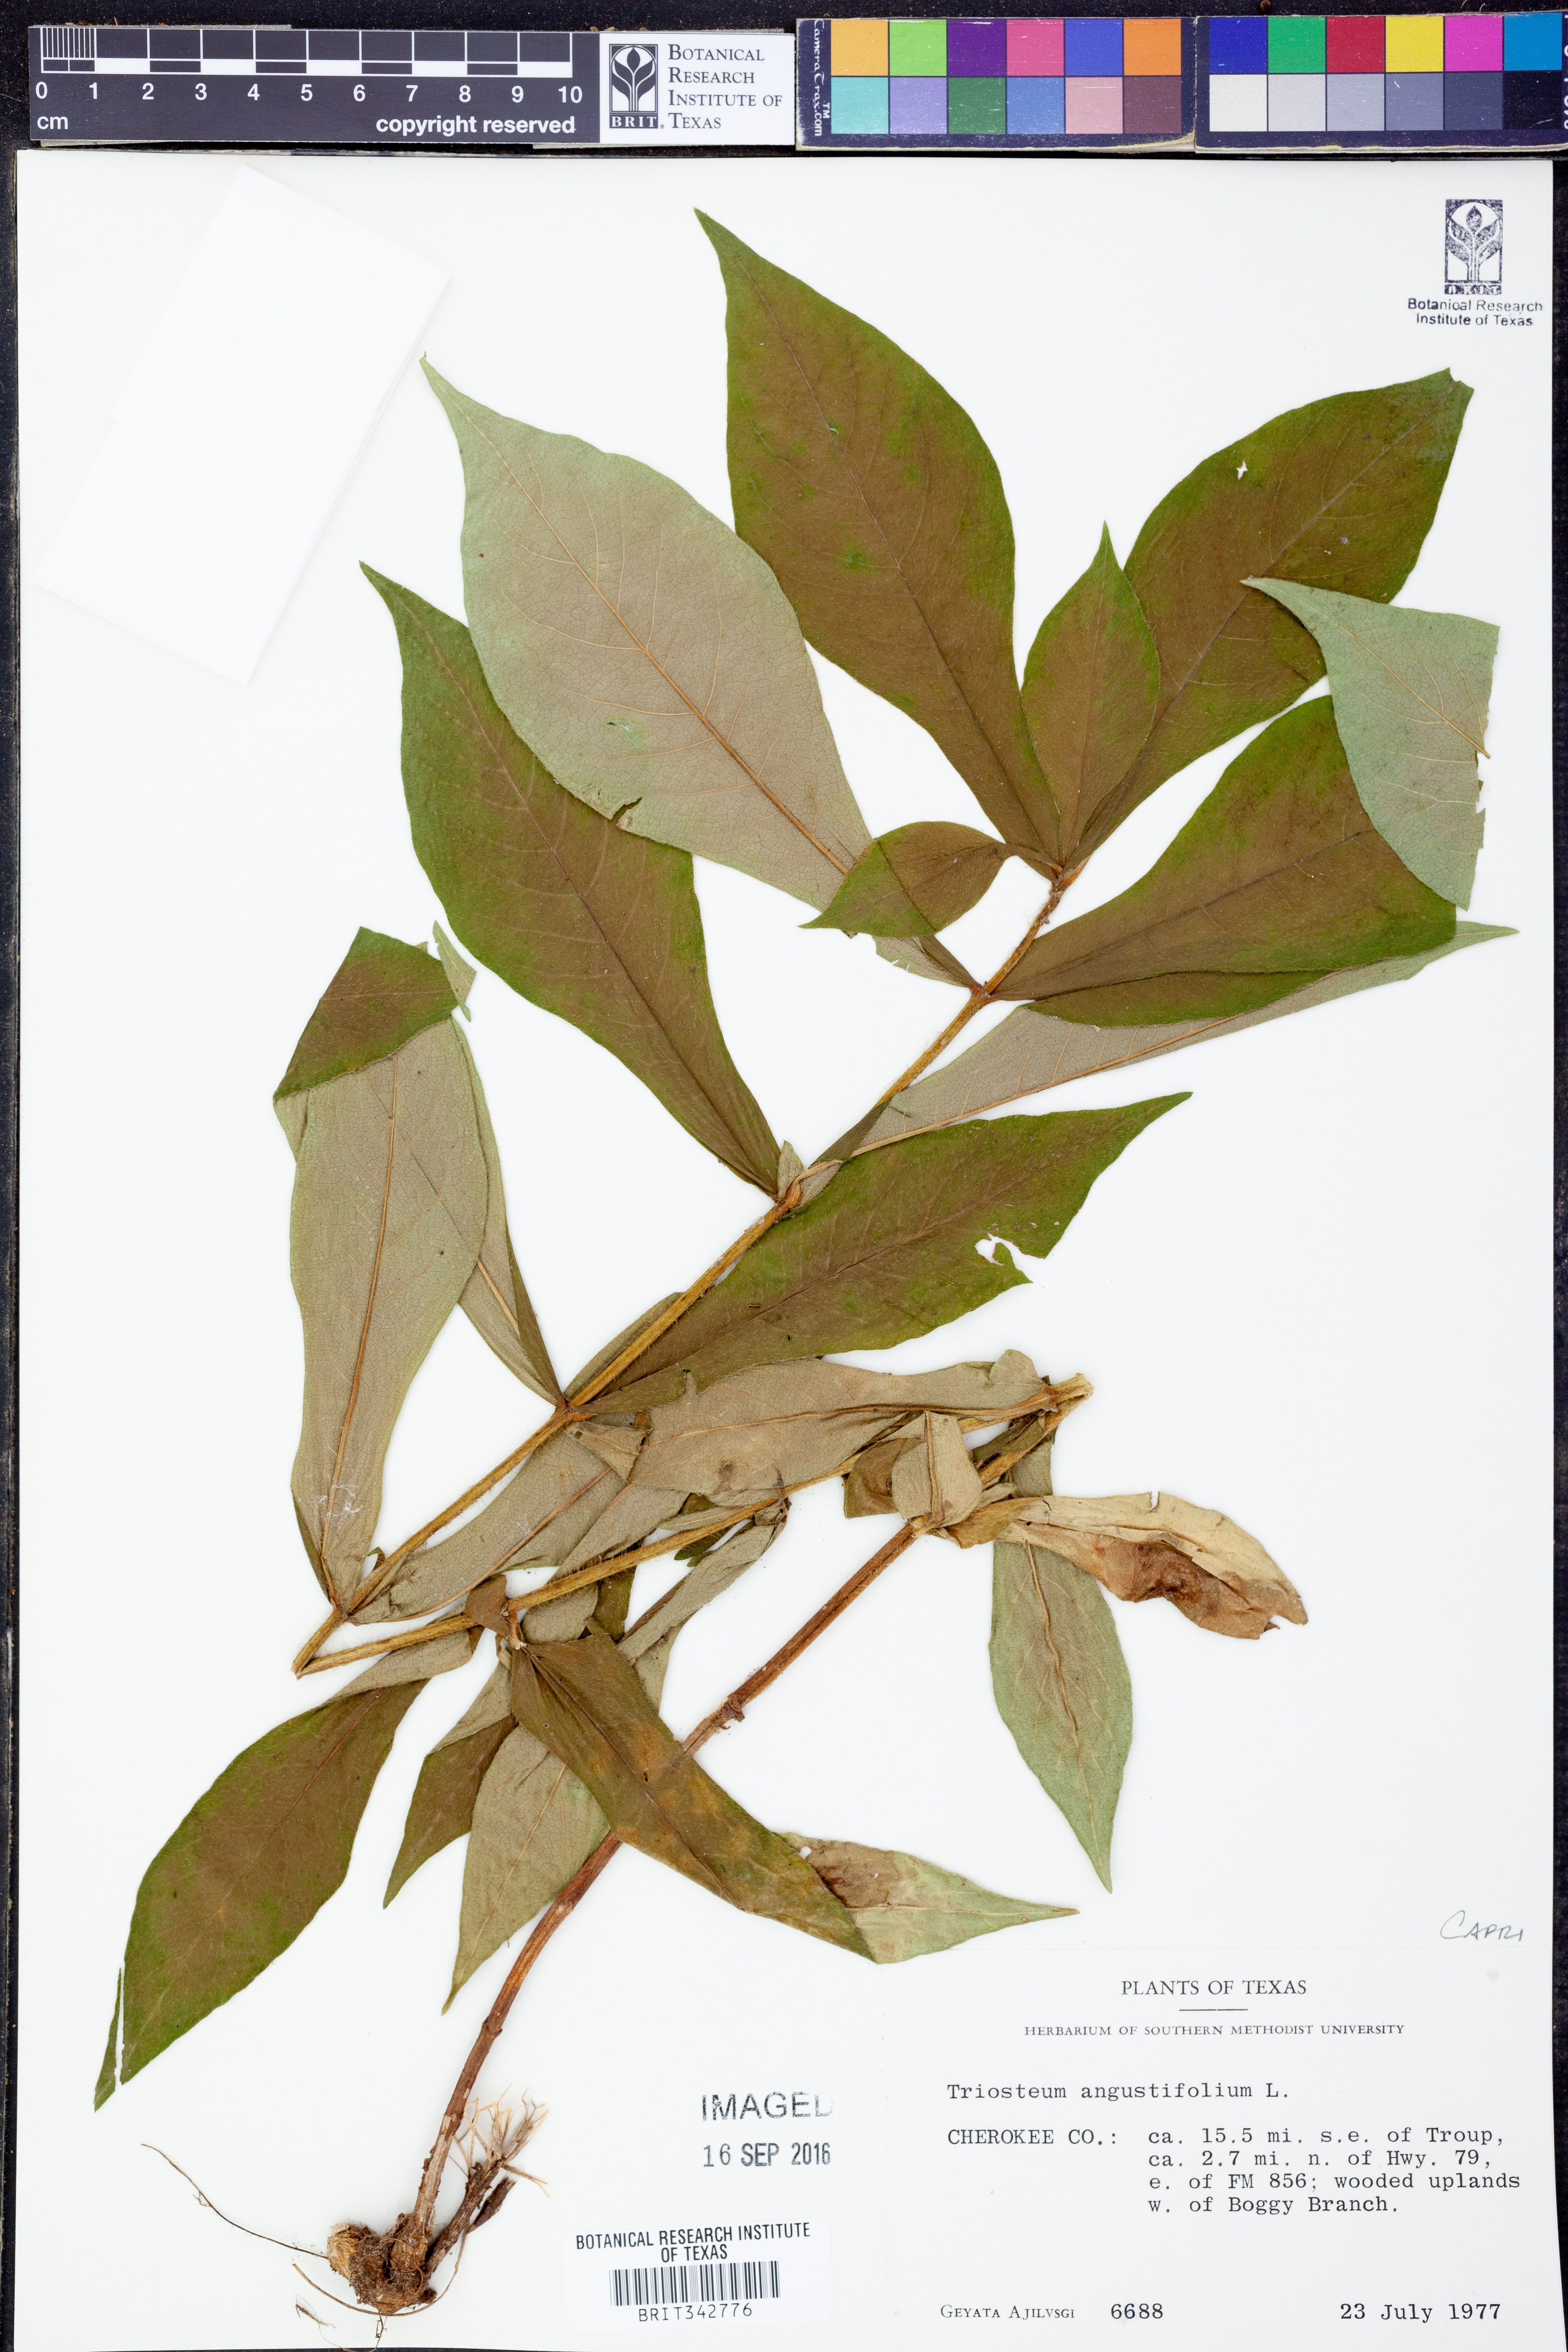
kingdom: Plantae
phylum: Tracheophyta
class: Magnoliopsida
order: Dipsacales
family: Caprifoliaceae
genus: Triosteum
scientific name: Triosteum angustifolium
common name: Narrow-leaved horse-gentian
